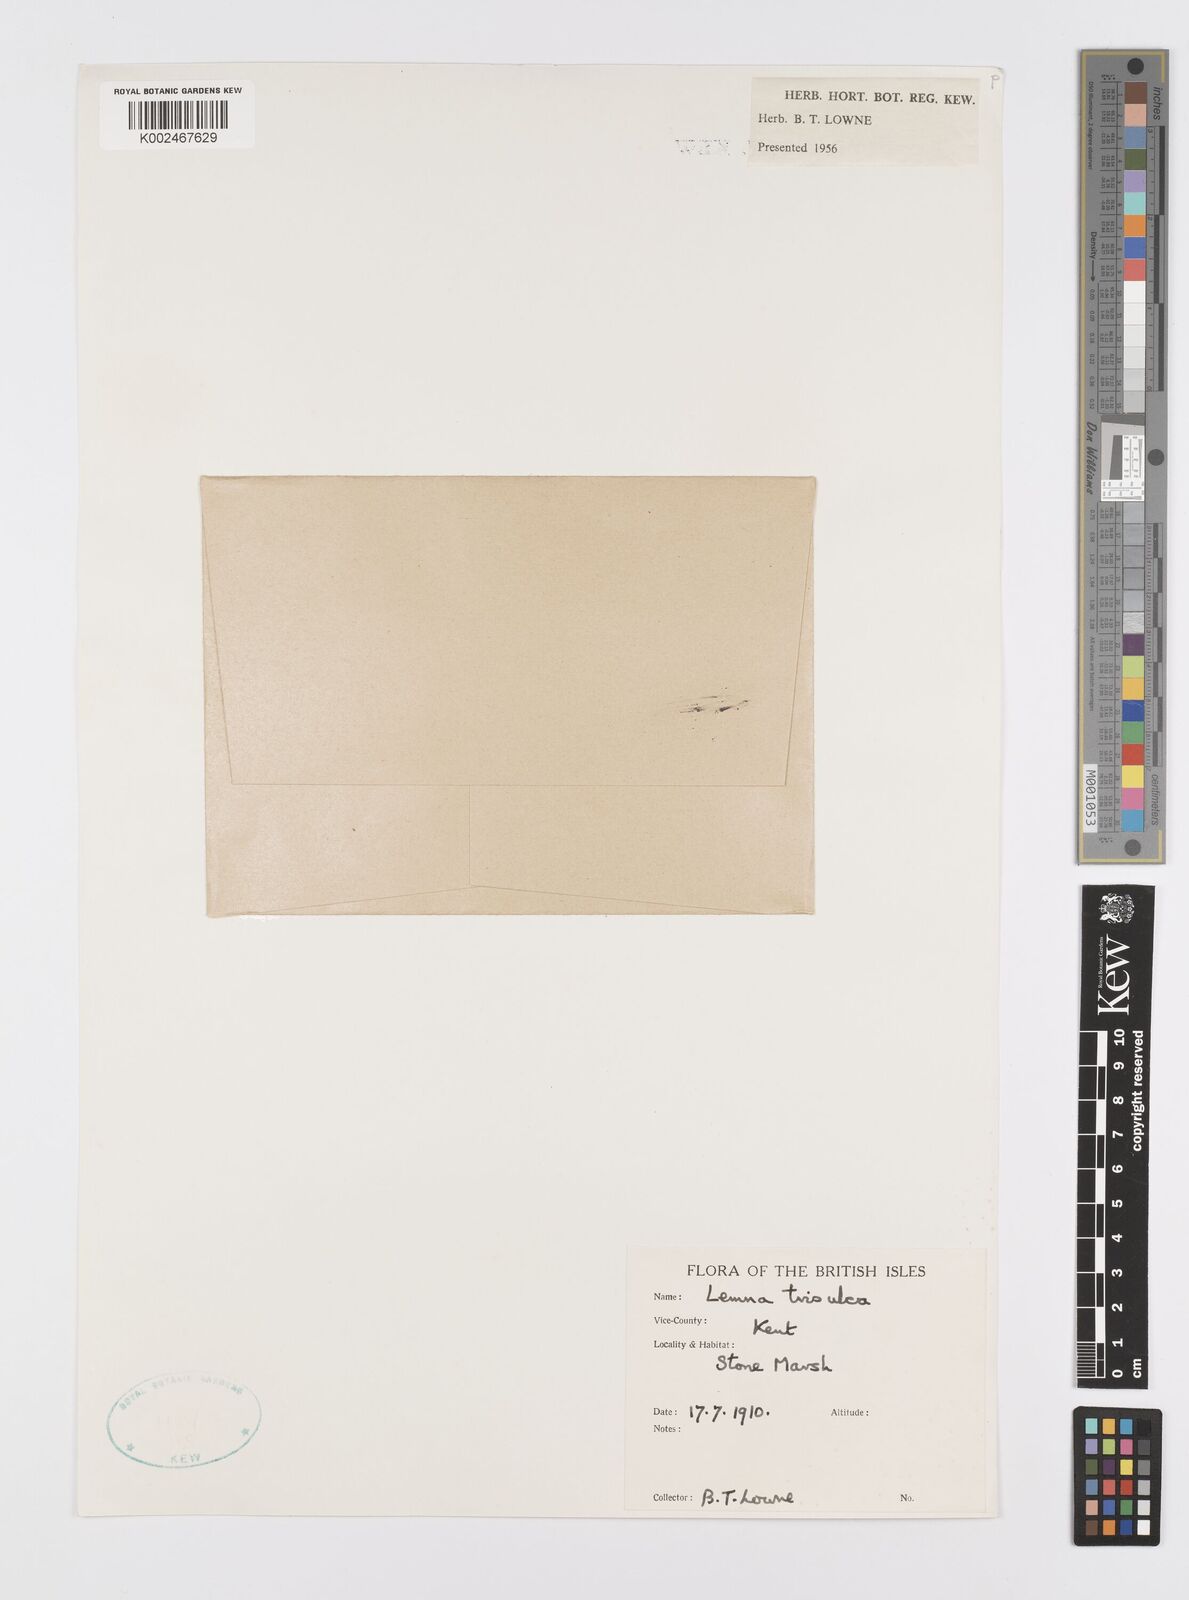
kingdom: Plantae
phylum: Tracheophyta
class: Liliopsida
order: Alismatales
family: Araceae
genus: Lemna
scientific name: Lemna trisulca
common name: Ivy-leaved duckweed
